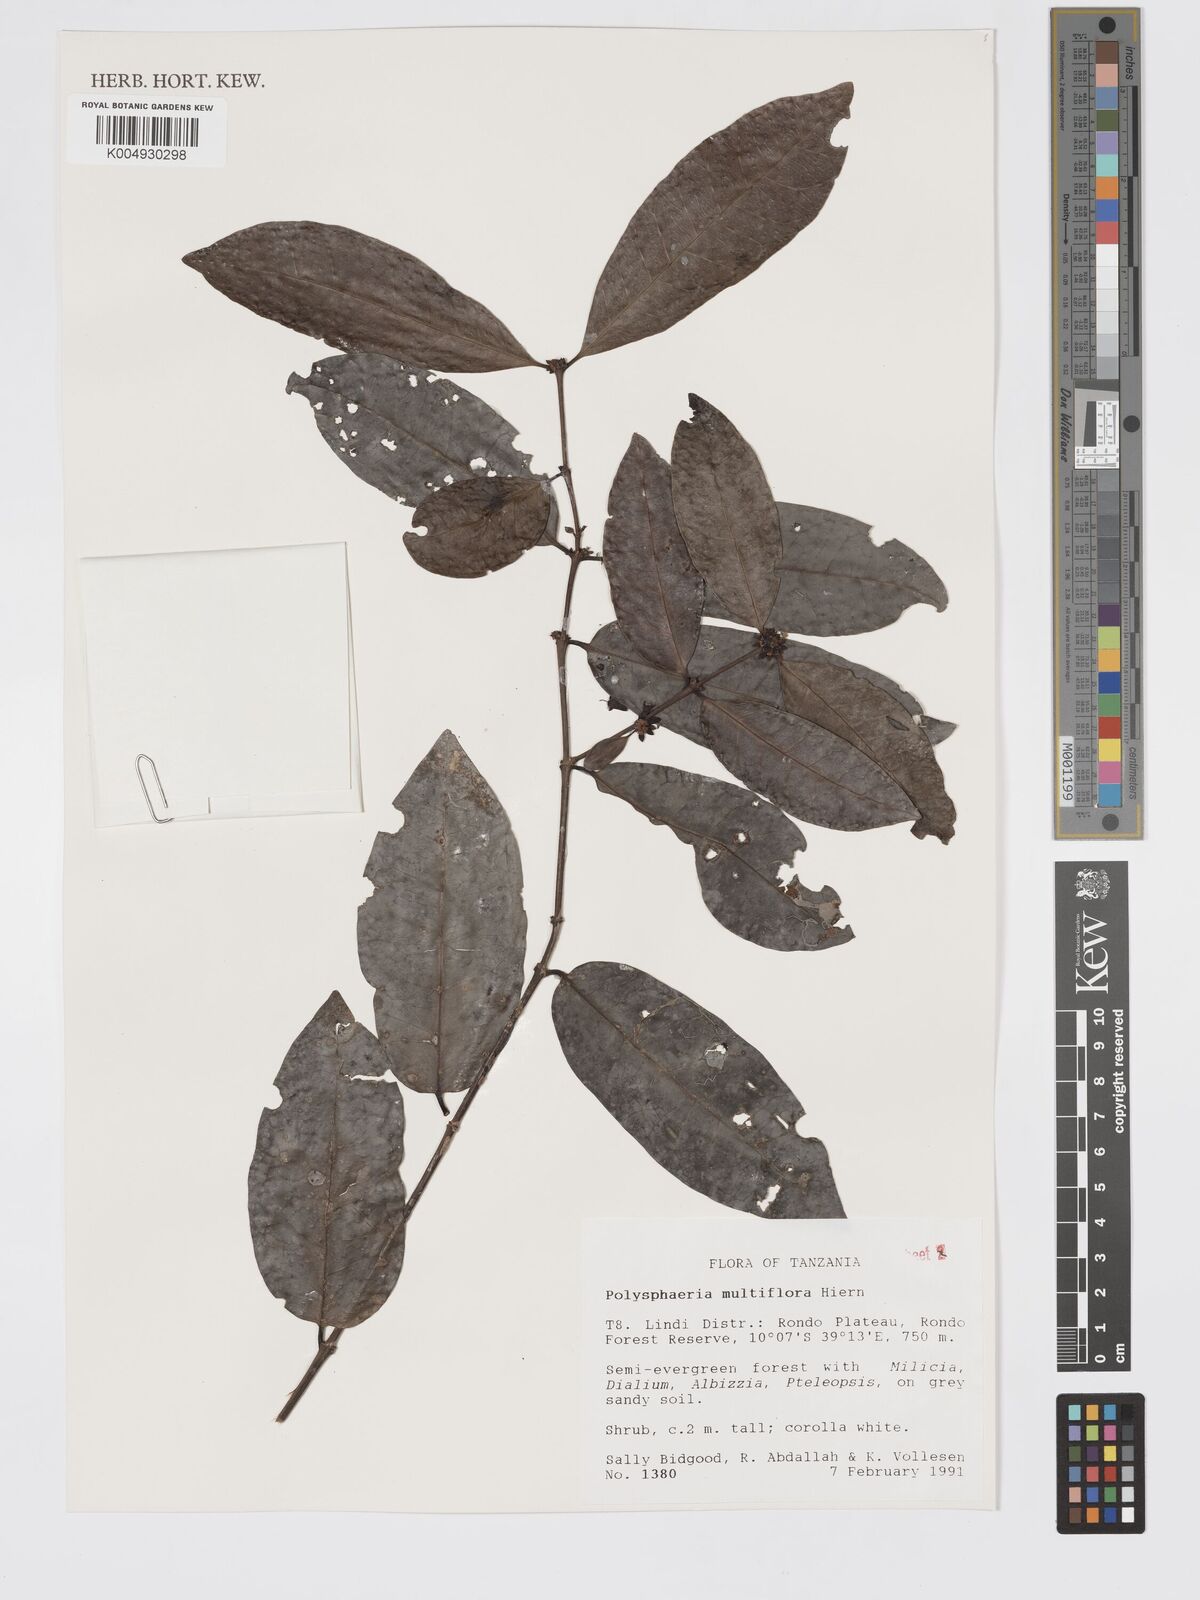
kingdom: Plantae
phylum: Tracheophyta
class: Magnoliopsida
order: Gentianales
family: Rubiaceae
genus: Polysphaeria
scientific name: Polysphaeria multiflora
